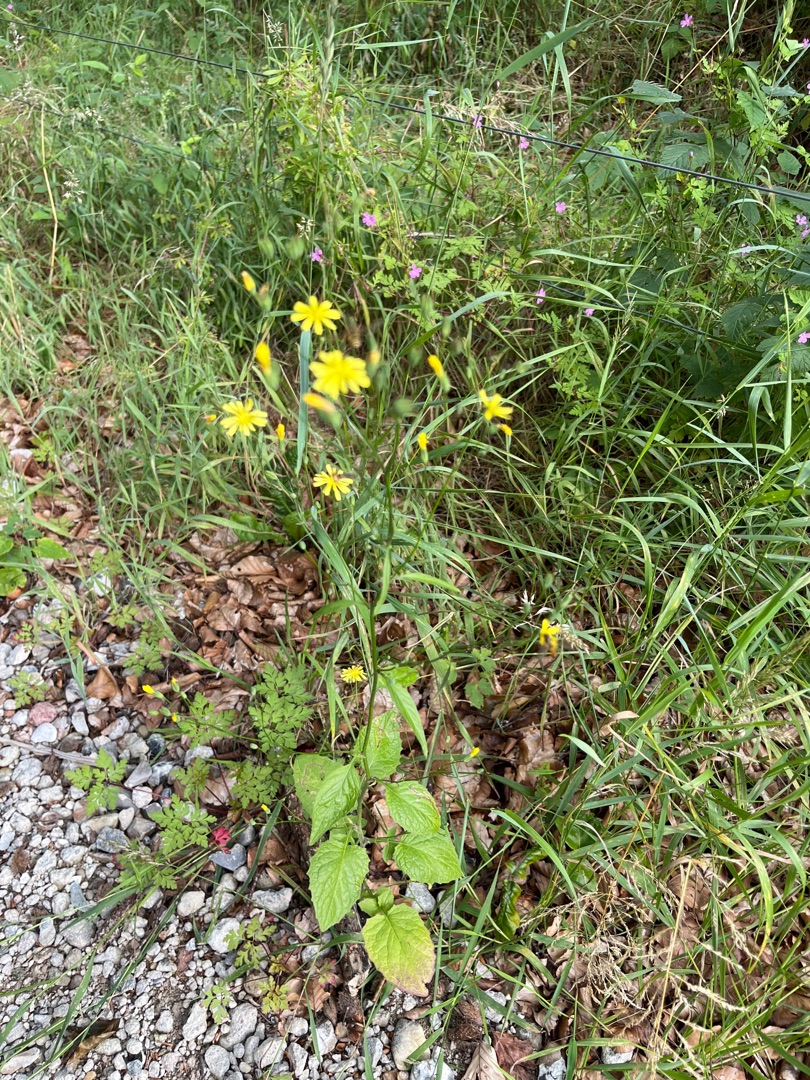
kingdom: Plantae
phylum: Tracheophyta
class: Magnoliopsida
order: Asterales
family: Asteraceae
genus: Lapsana
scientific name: Lapsana communis
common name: Haremad
